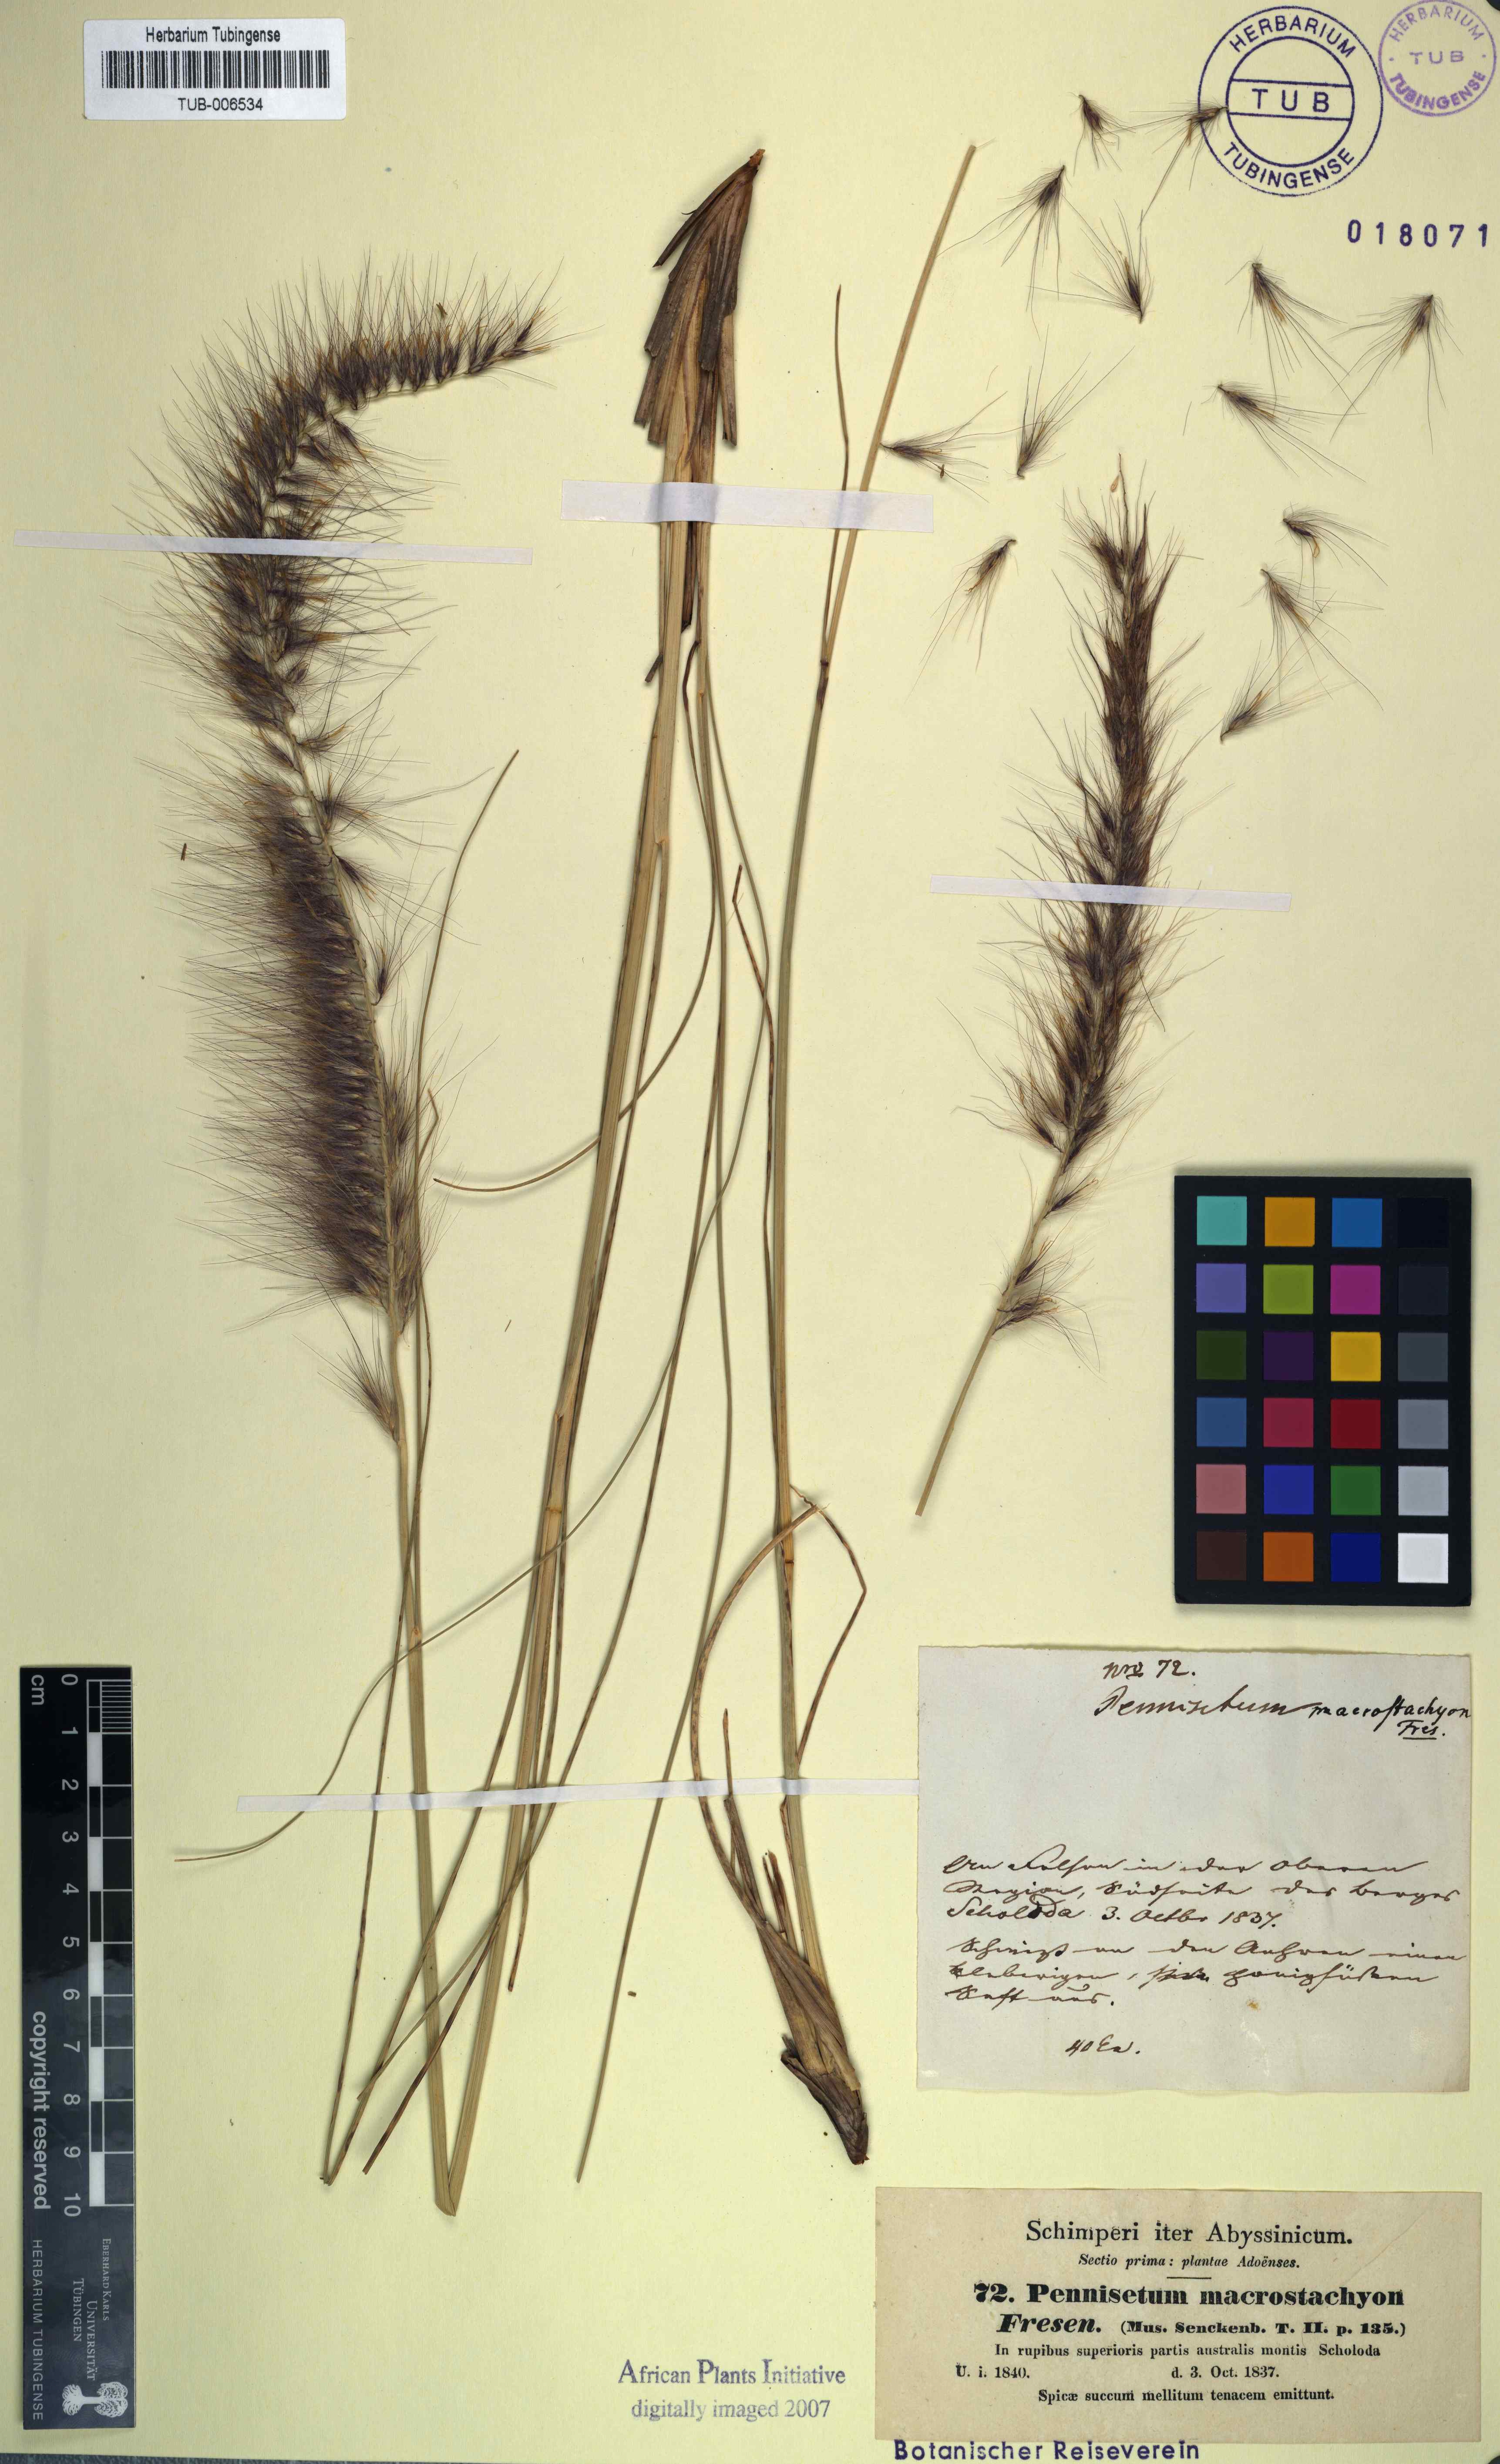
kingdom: Plantae
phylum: Tracheophyta
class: Liliopsida
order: Poales
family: Poaceae
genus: Cenchrus
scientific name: Cenchrus setaceus
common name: Crimson fountaingrass
